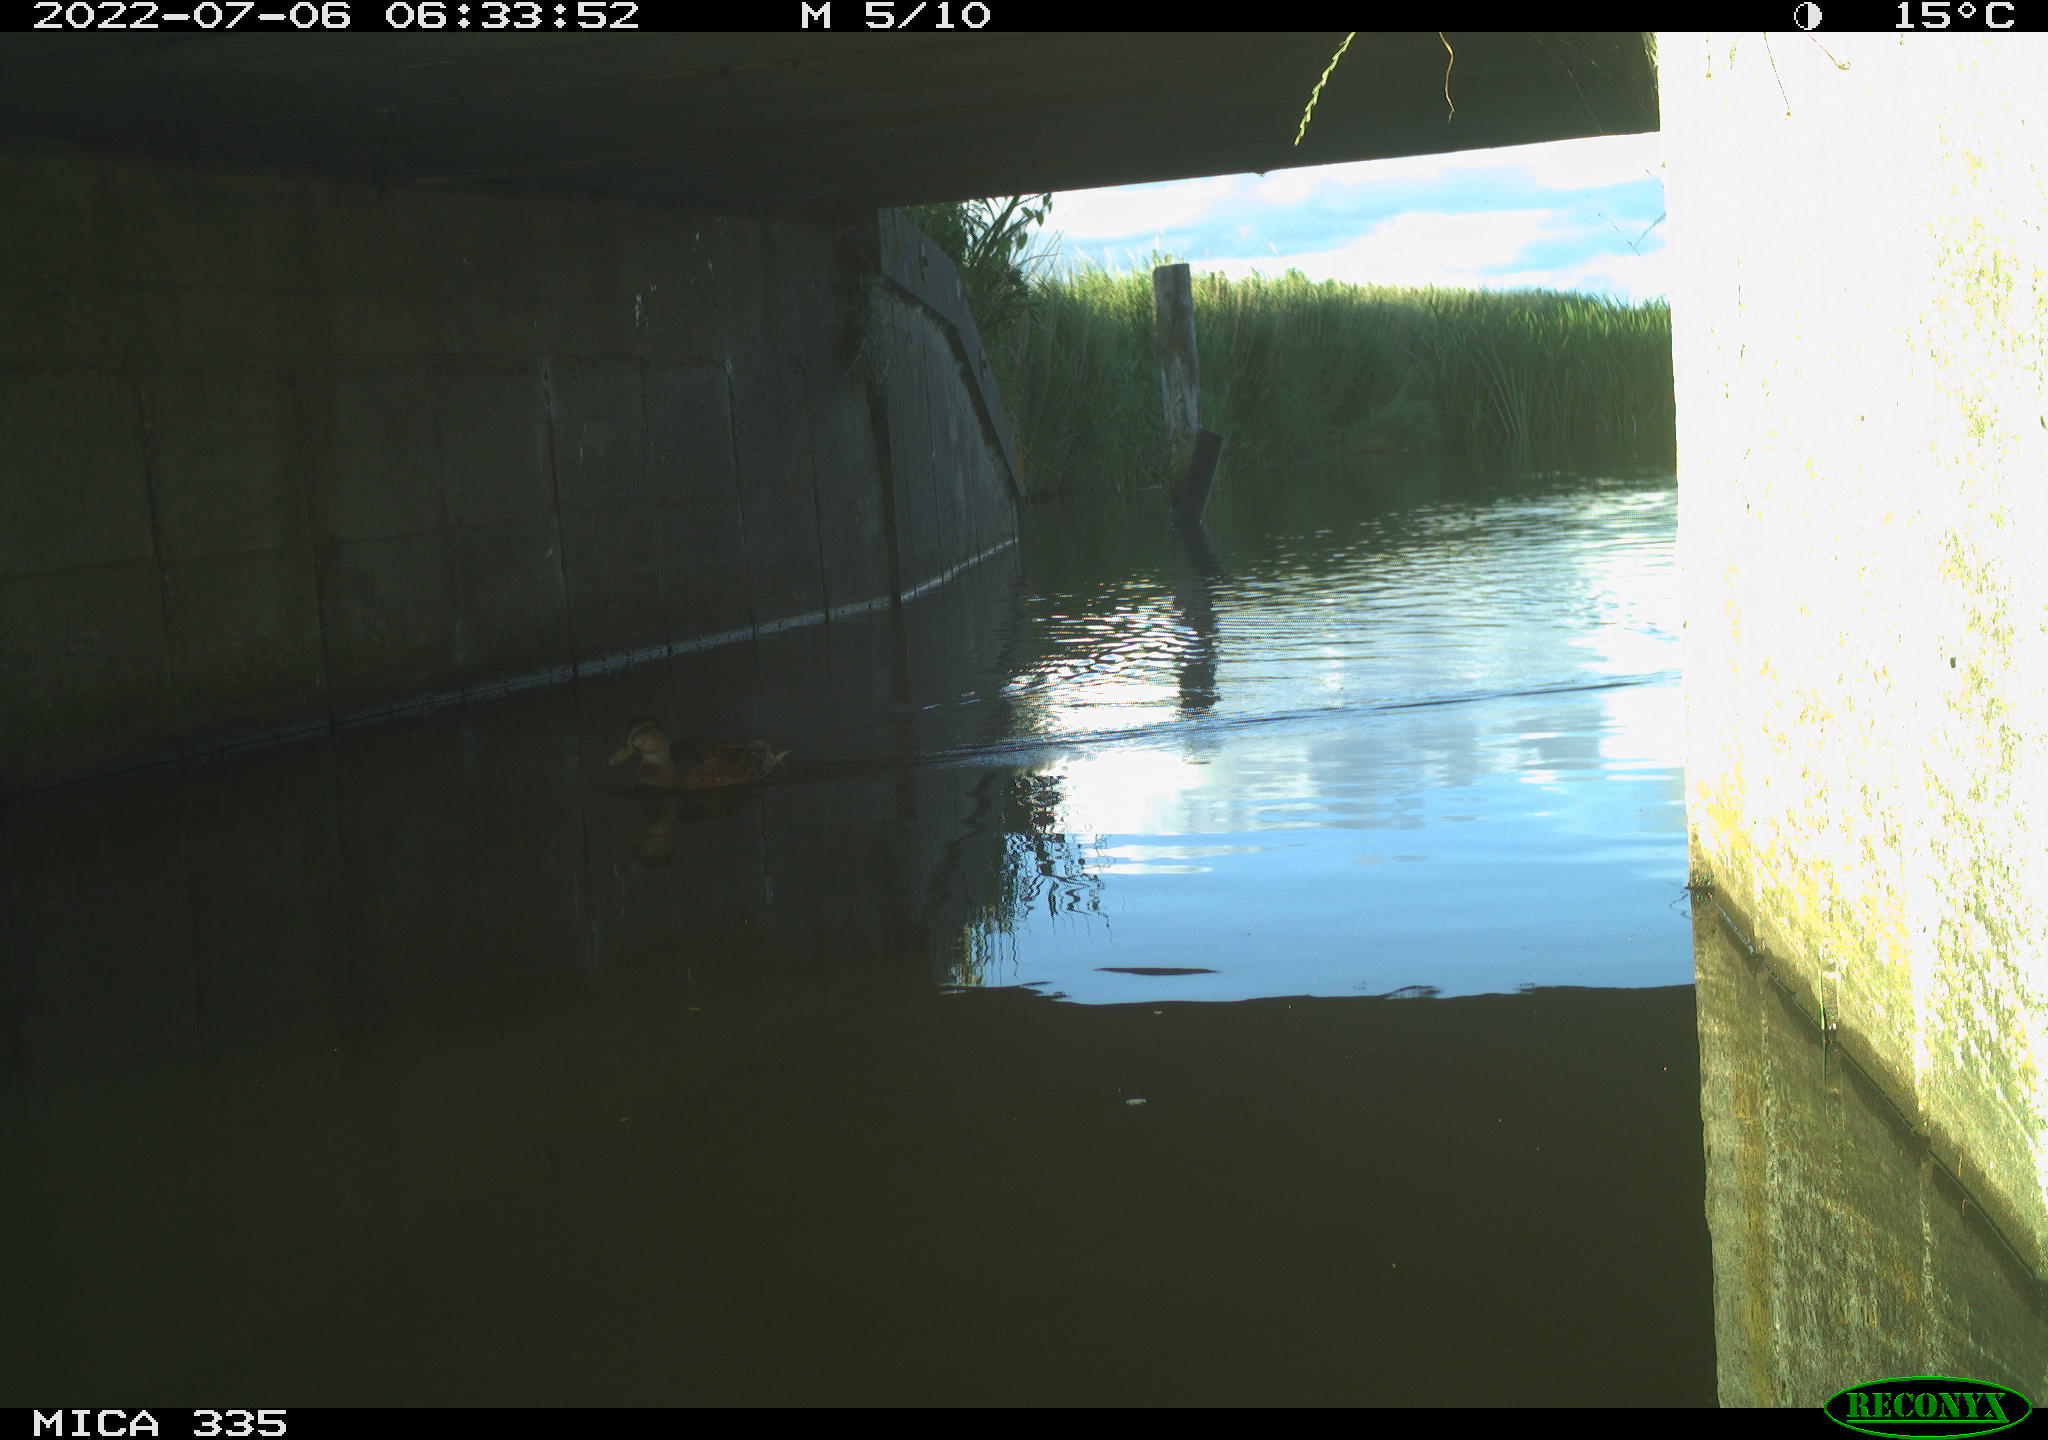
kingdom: Animalia
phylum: Chordata
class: Aves
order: Anseriformes
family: Anatidae
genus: Anas
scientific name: Anas platyrhynchos
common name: Mallard
